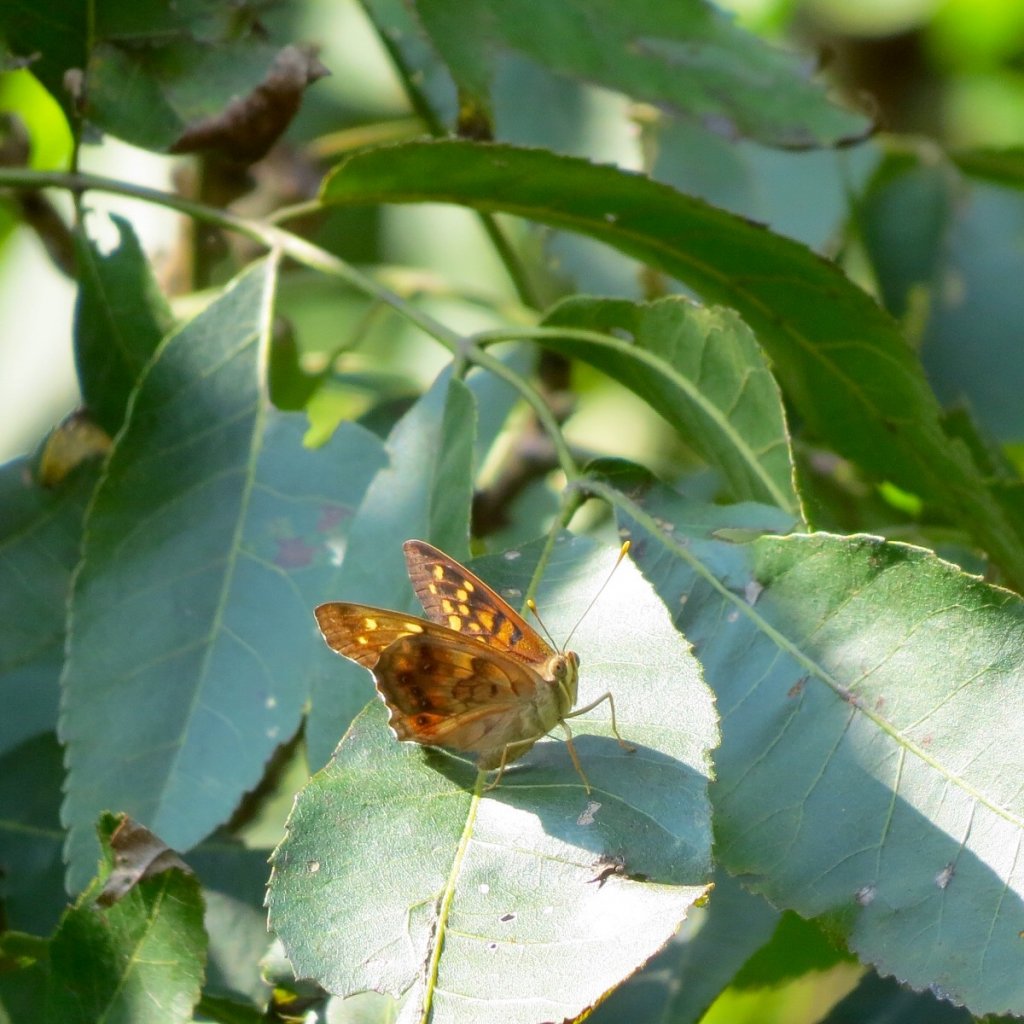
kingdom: Animalia
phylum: Arthropoda
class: Insecta
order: Lepidoptera
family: Nymphalidae
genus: Asterocampa
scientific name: Asterocampa clyton
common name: Tawny Emperor
